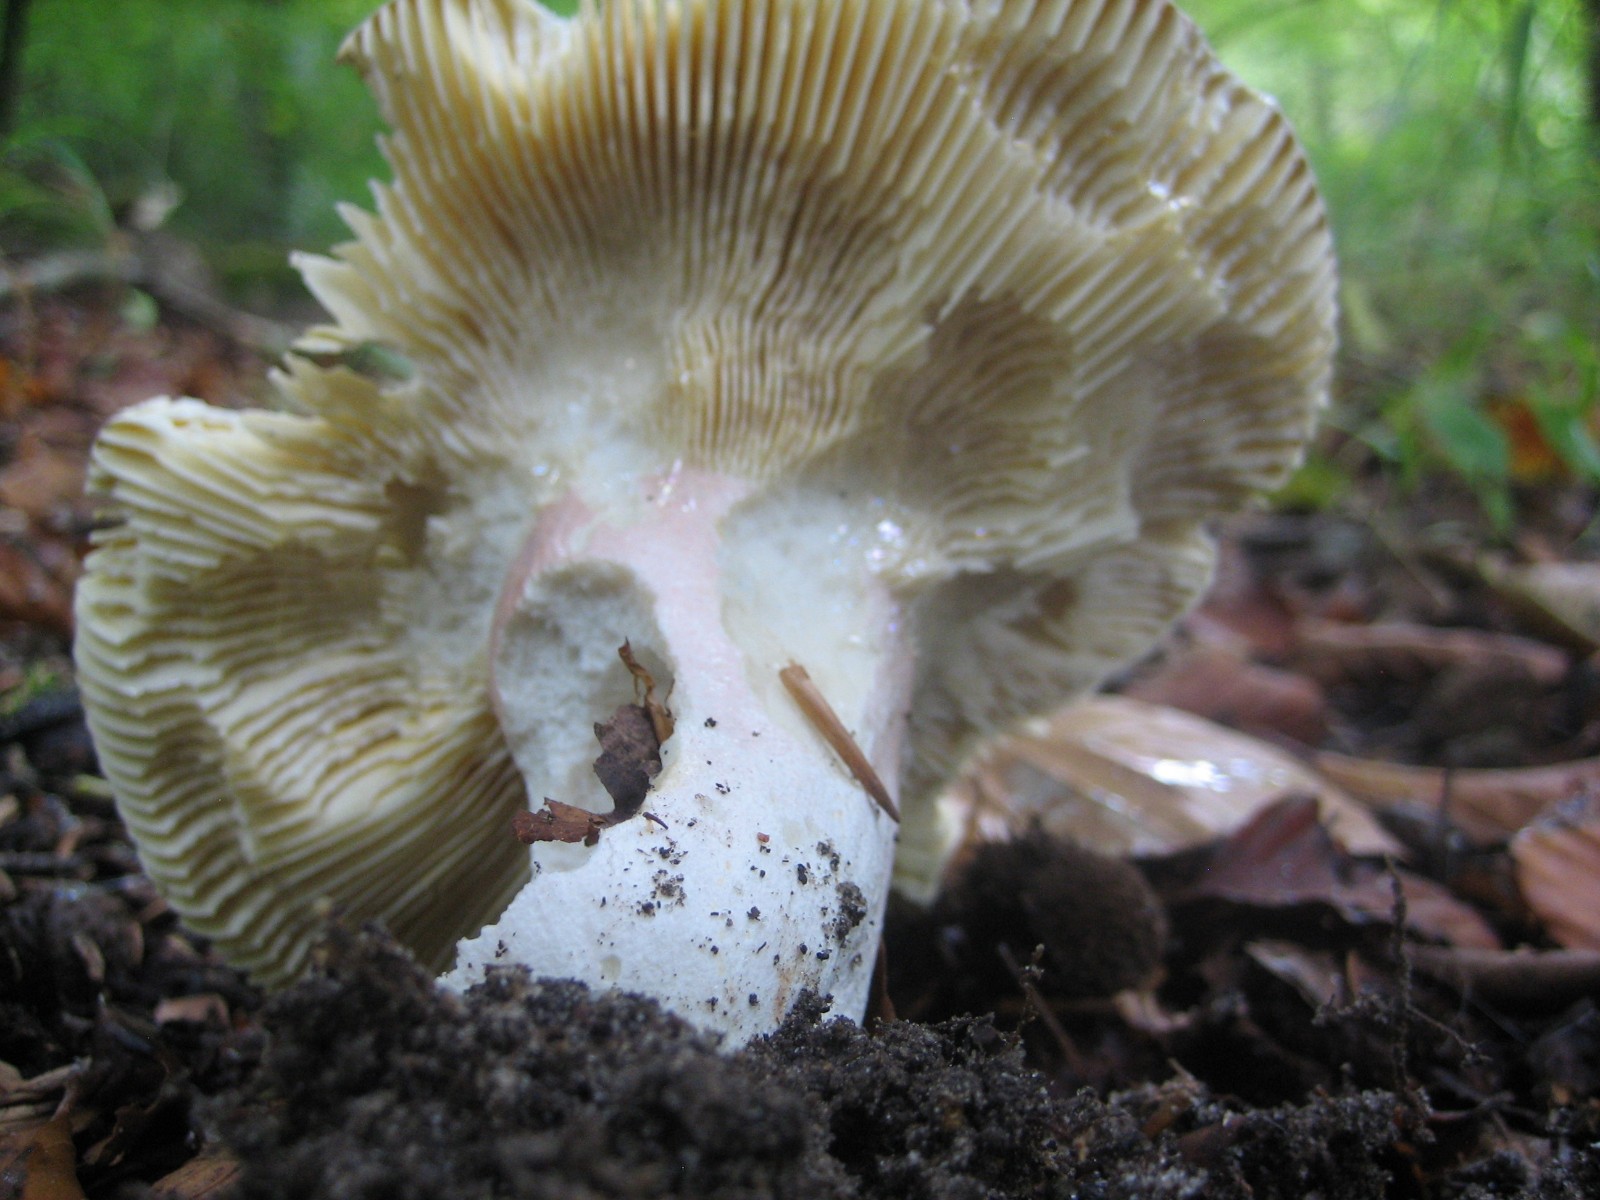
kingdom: Fungi
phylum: Basidiomycota
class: Agaricomycetes
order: Russulales
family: Russulaceae
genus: Russula
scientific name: Russula olivacea
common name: stor skørhat
